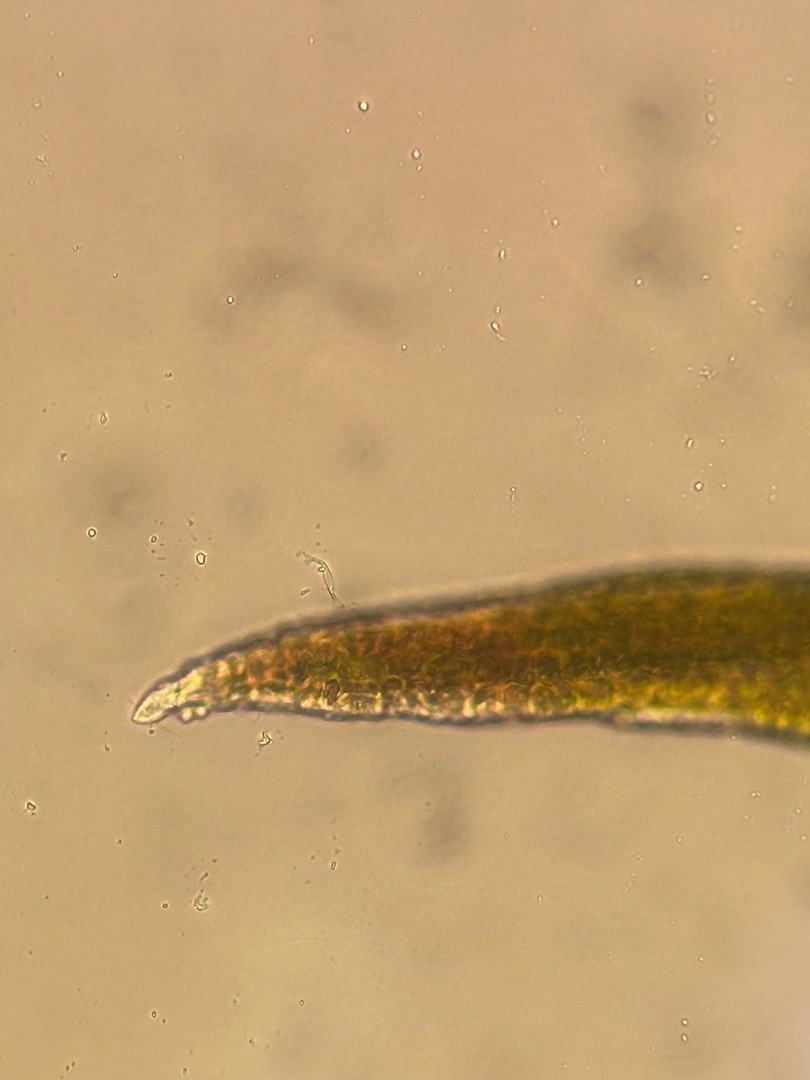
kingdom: Plantae
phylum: Bryophyta
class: Bryopsida
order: Pottiales
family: Pottiaceae
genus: Vinealobryum
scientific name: Vinealobryum insulanum
